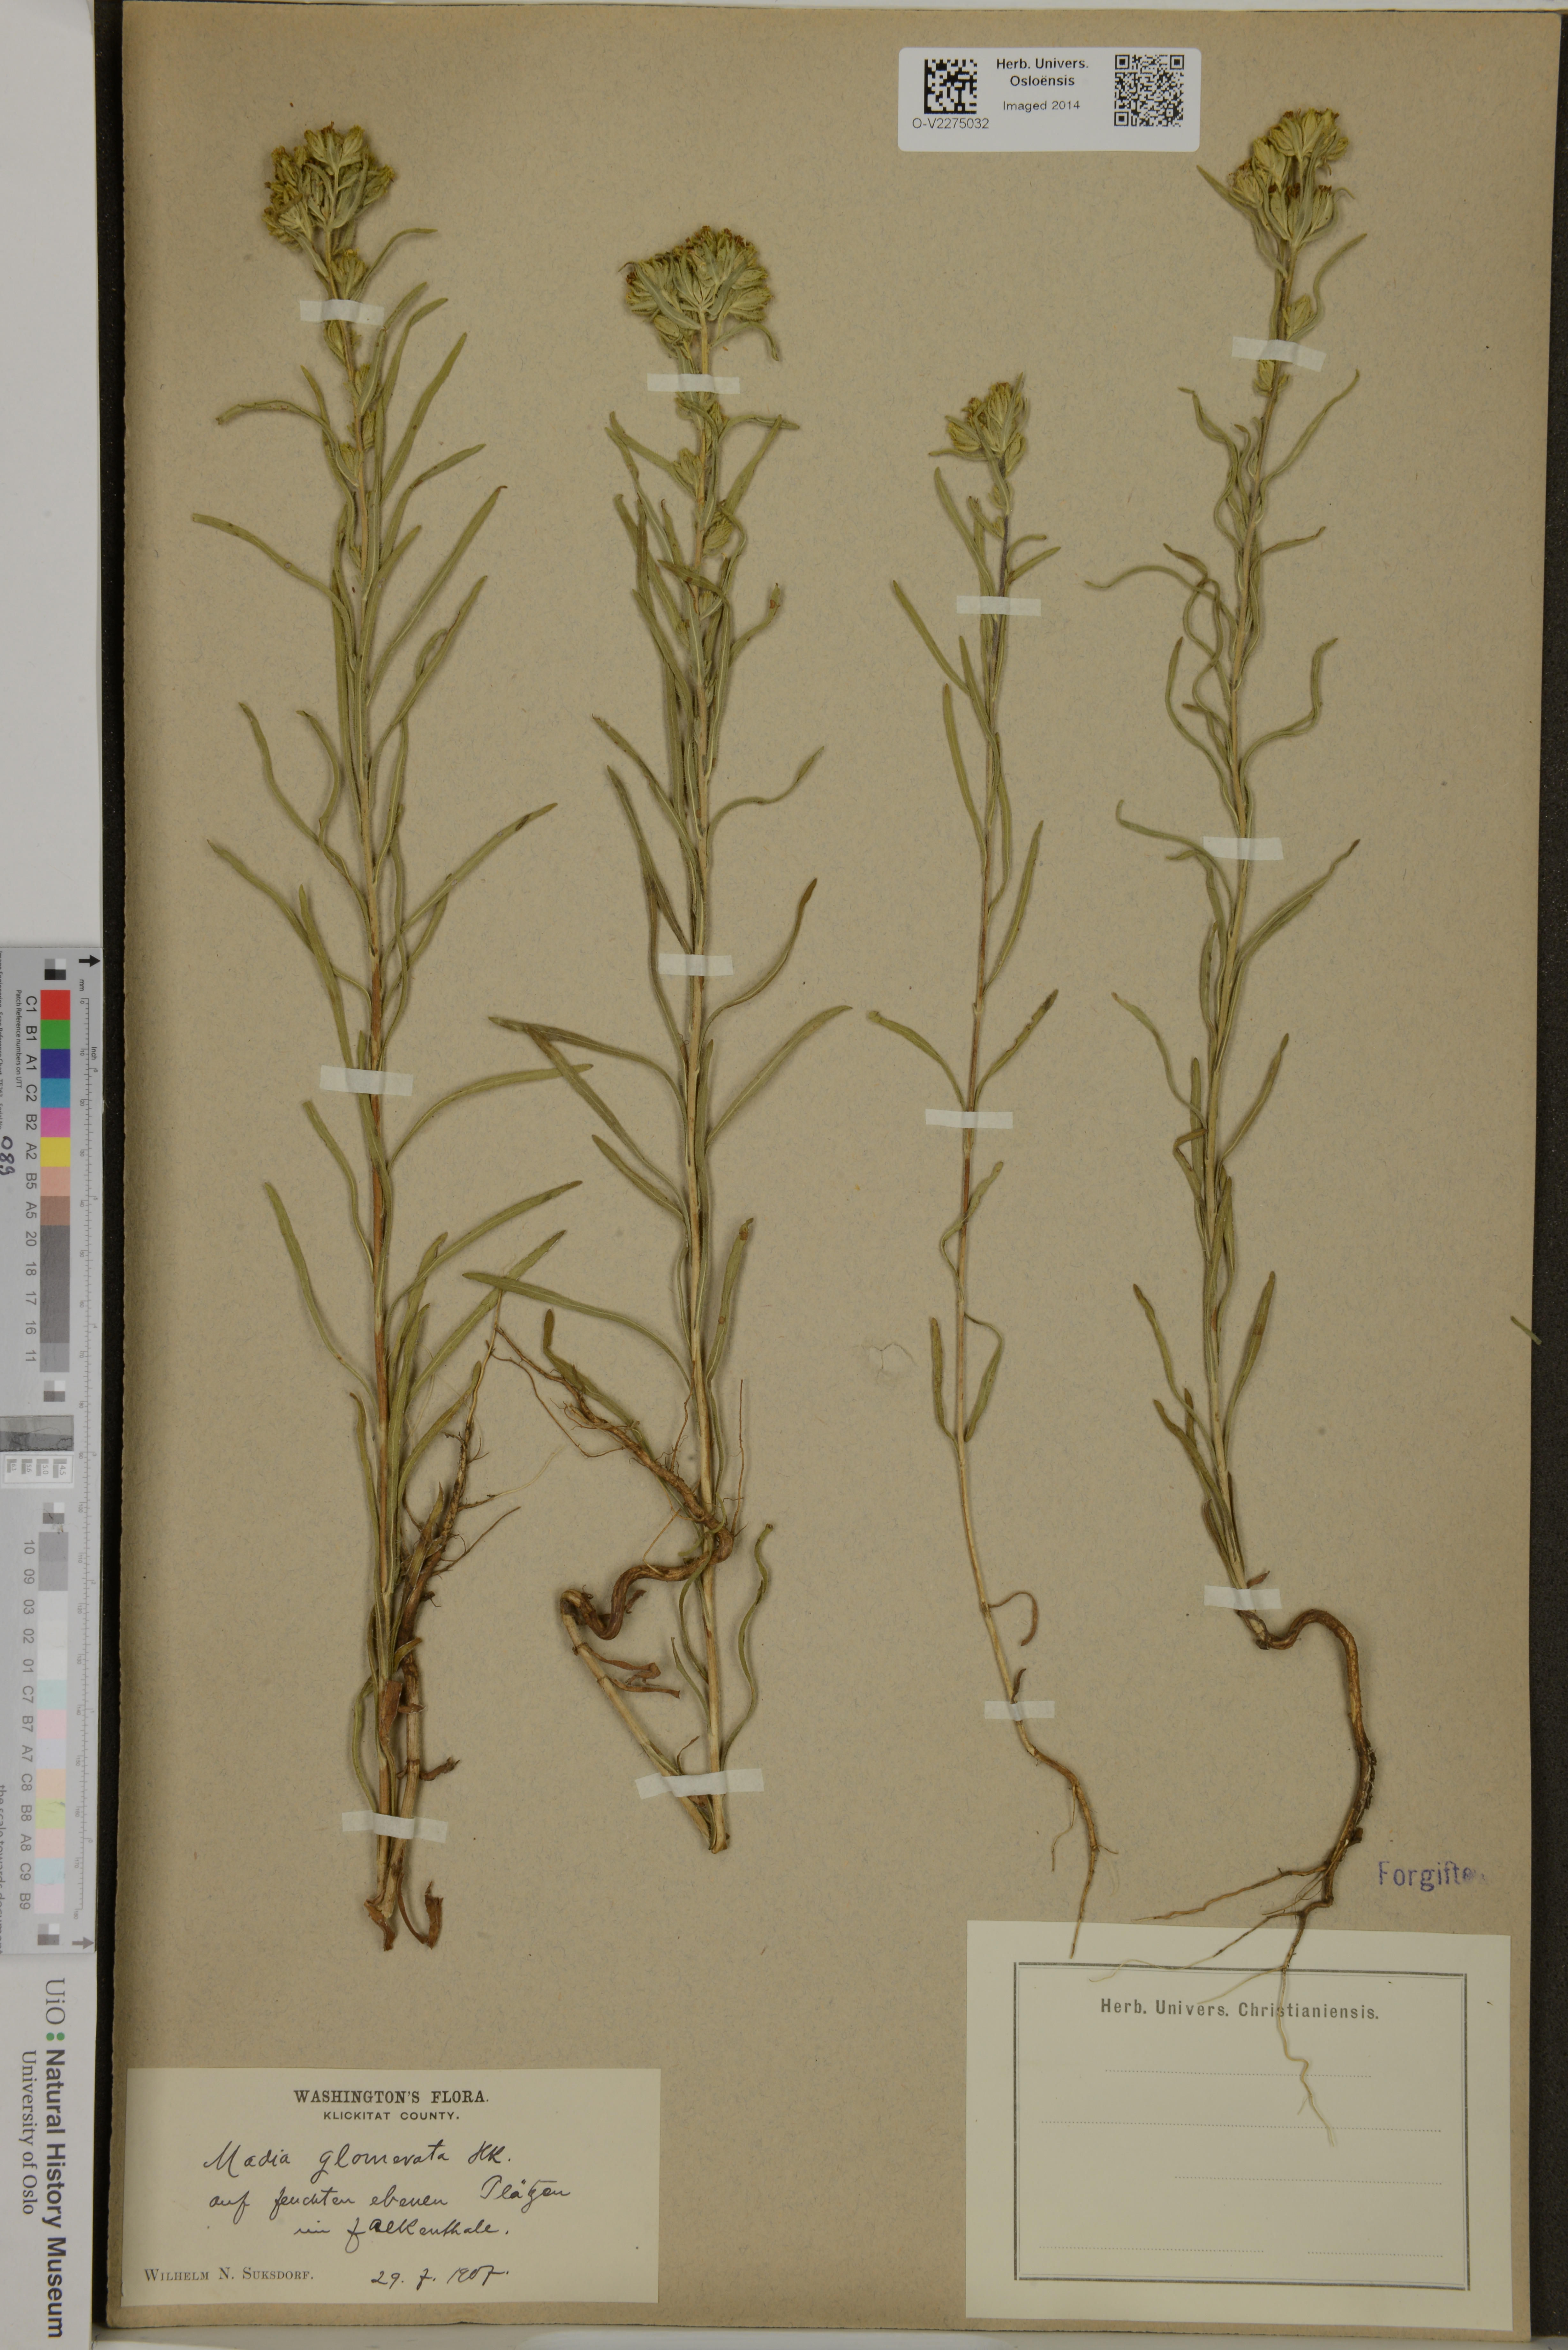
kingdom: Plantae
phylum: Tracheophyta
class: Magnoliopsida
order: Asterales
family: Asteraceae
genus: Madia
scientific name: Madia glomerata
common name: Mountain tarweed
